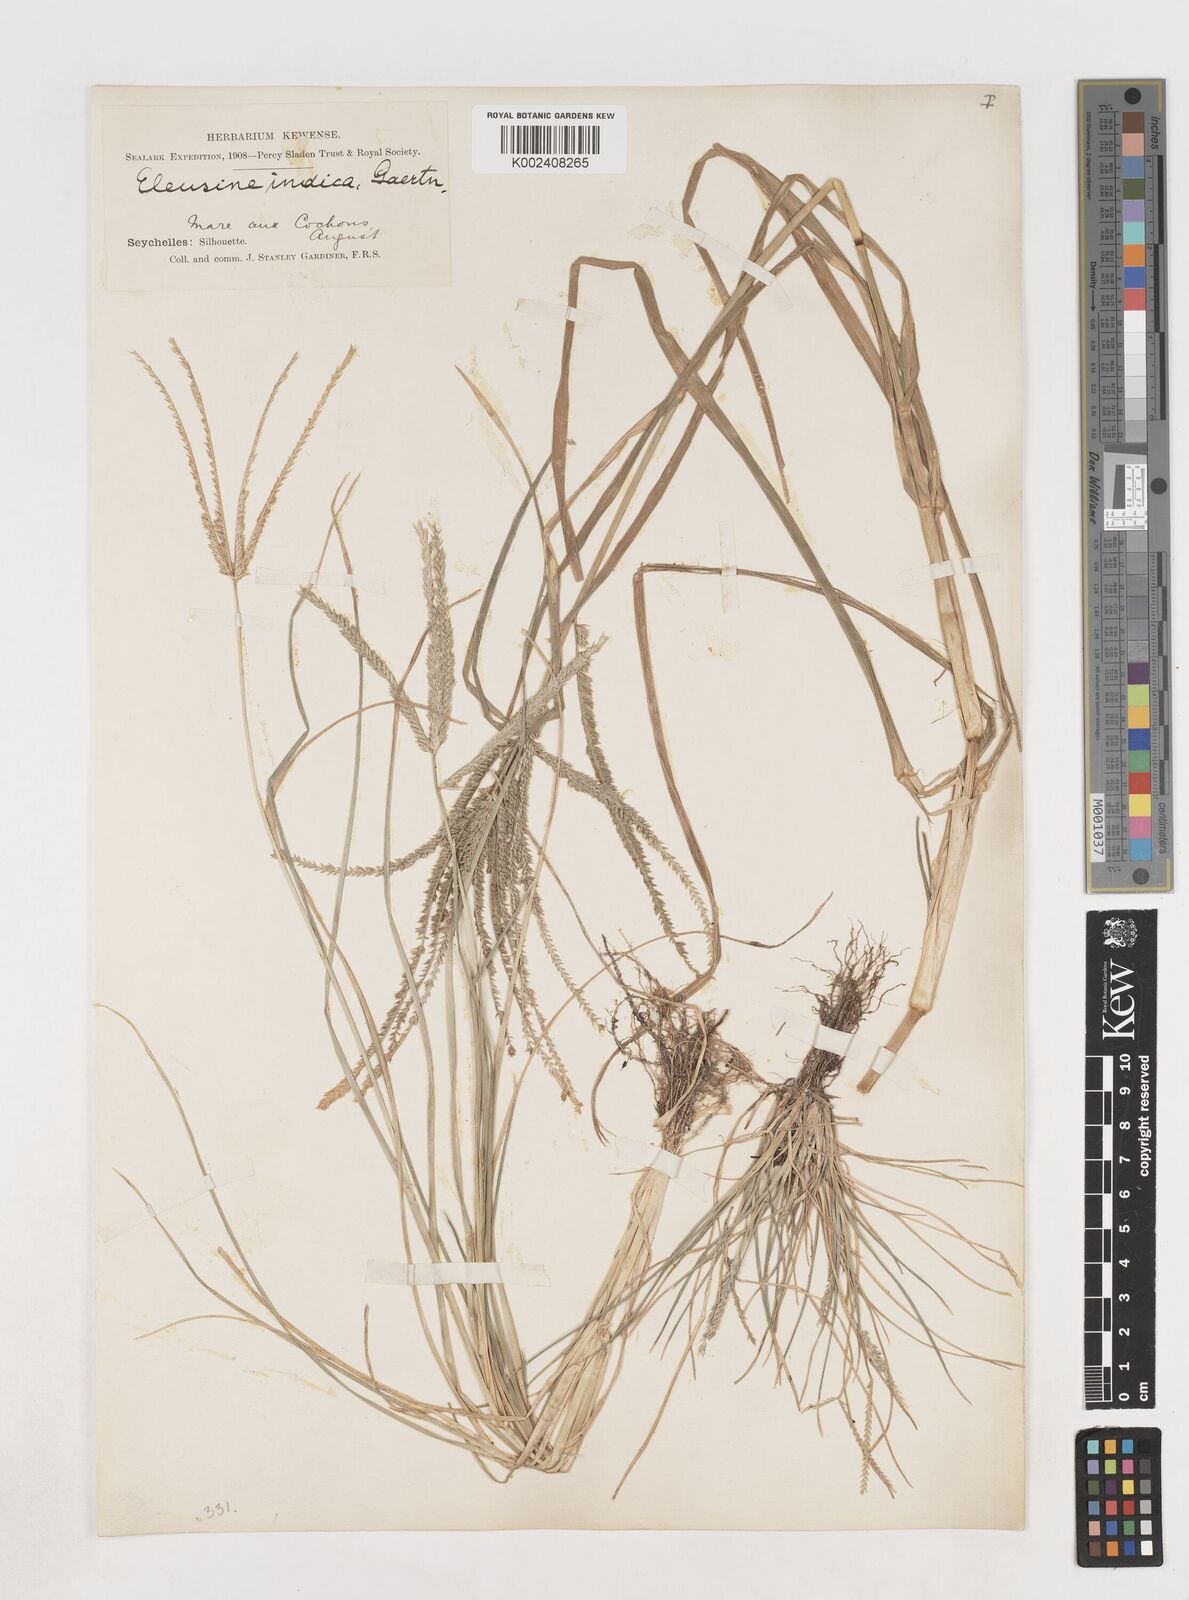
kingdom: Plantae
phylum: Tracheophyta
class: Liliopsida
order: Poales
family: Poaceae
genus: Eleusine
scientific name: Eleusine indica
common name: Yard-grass
